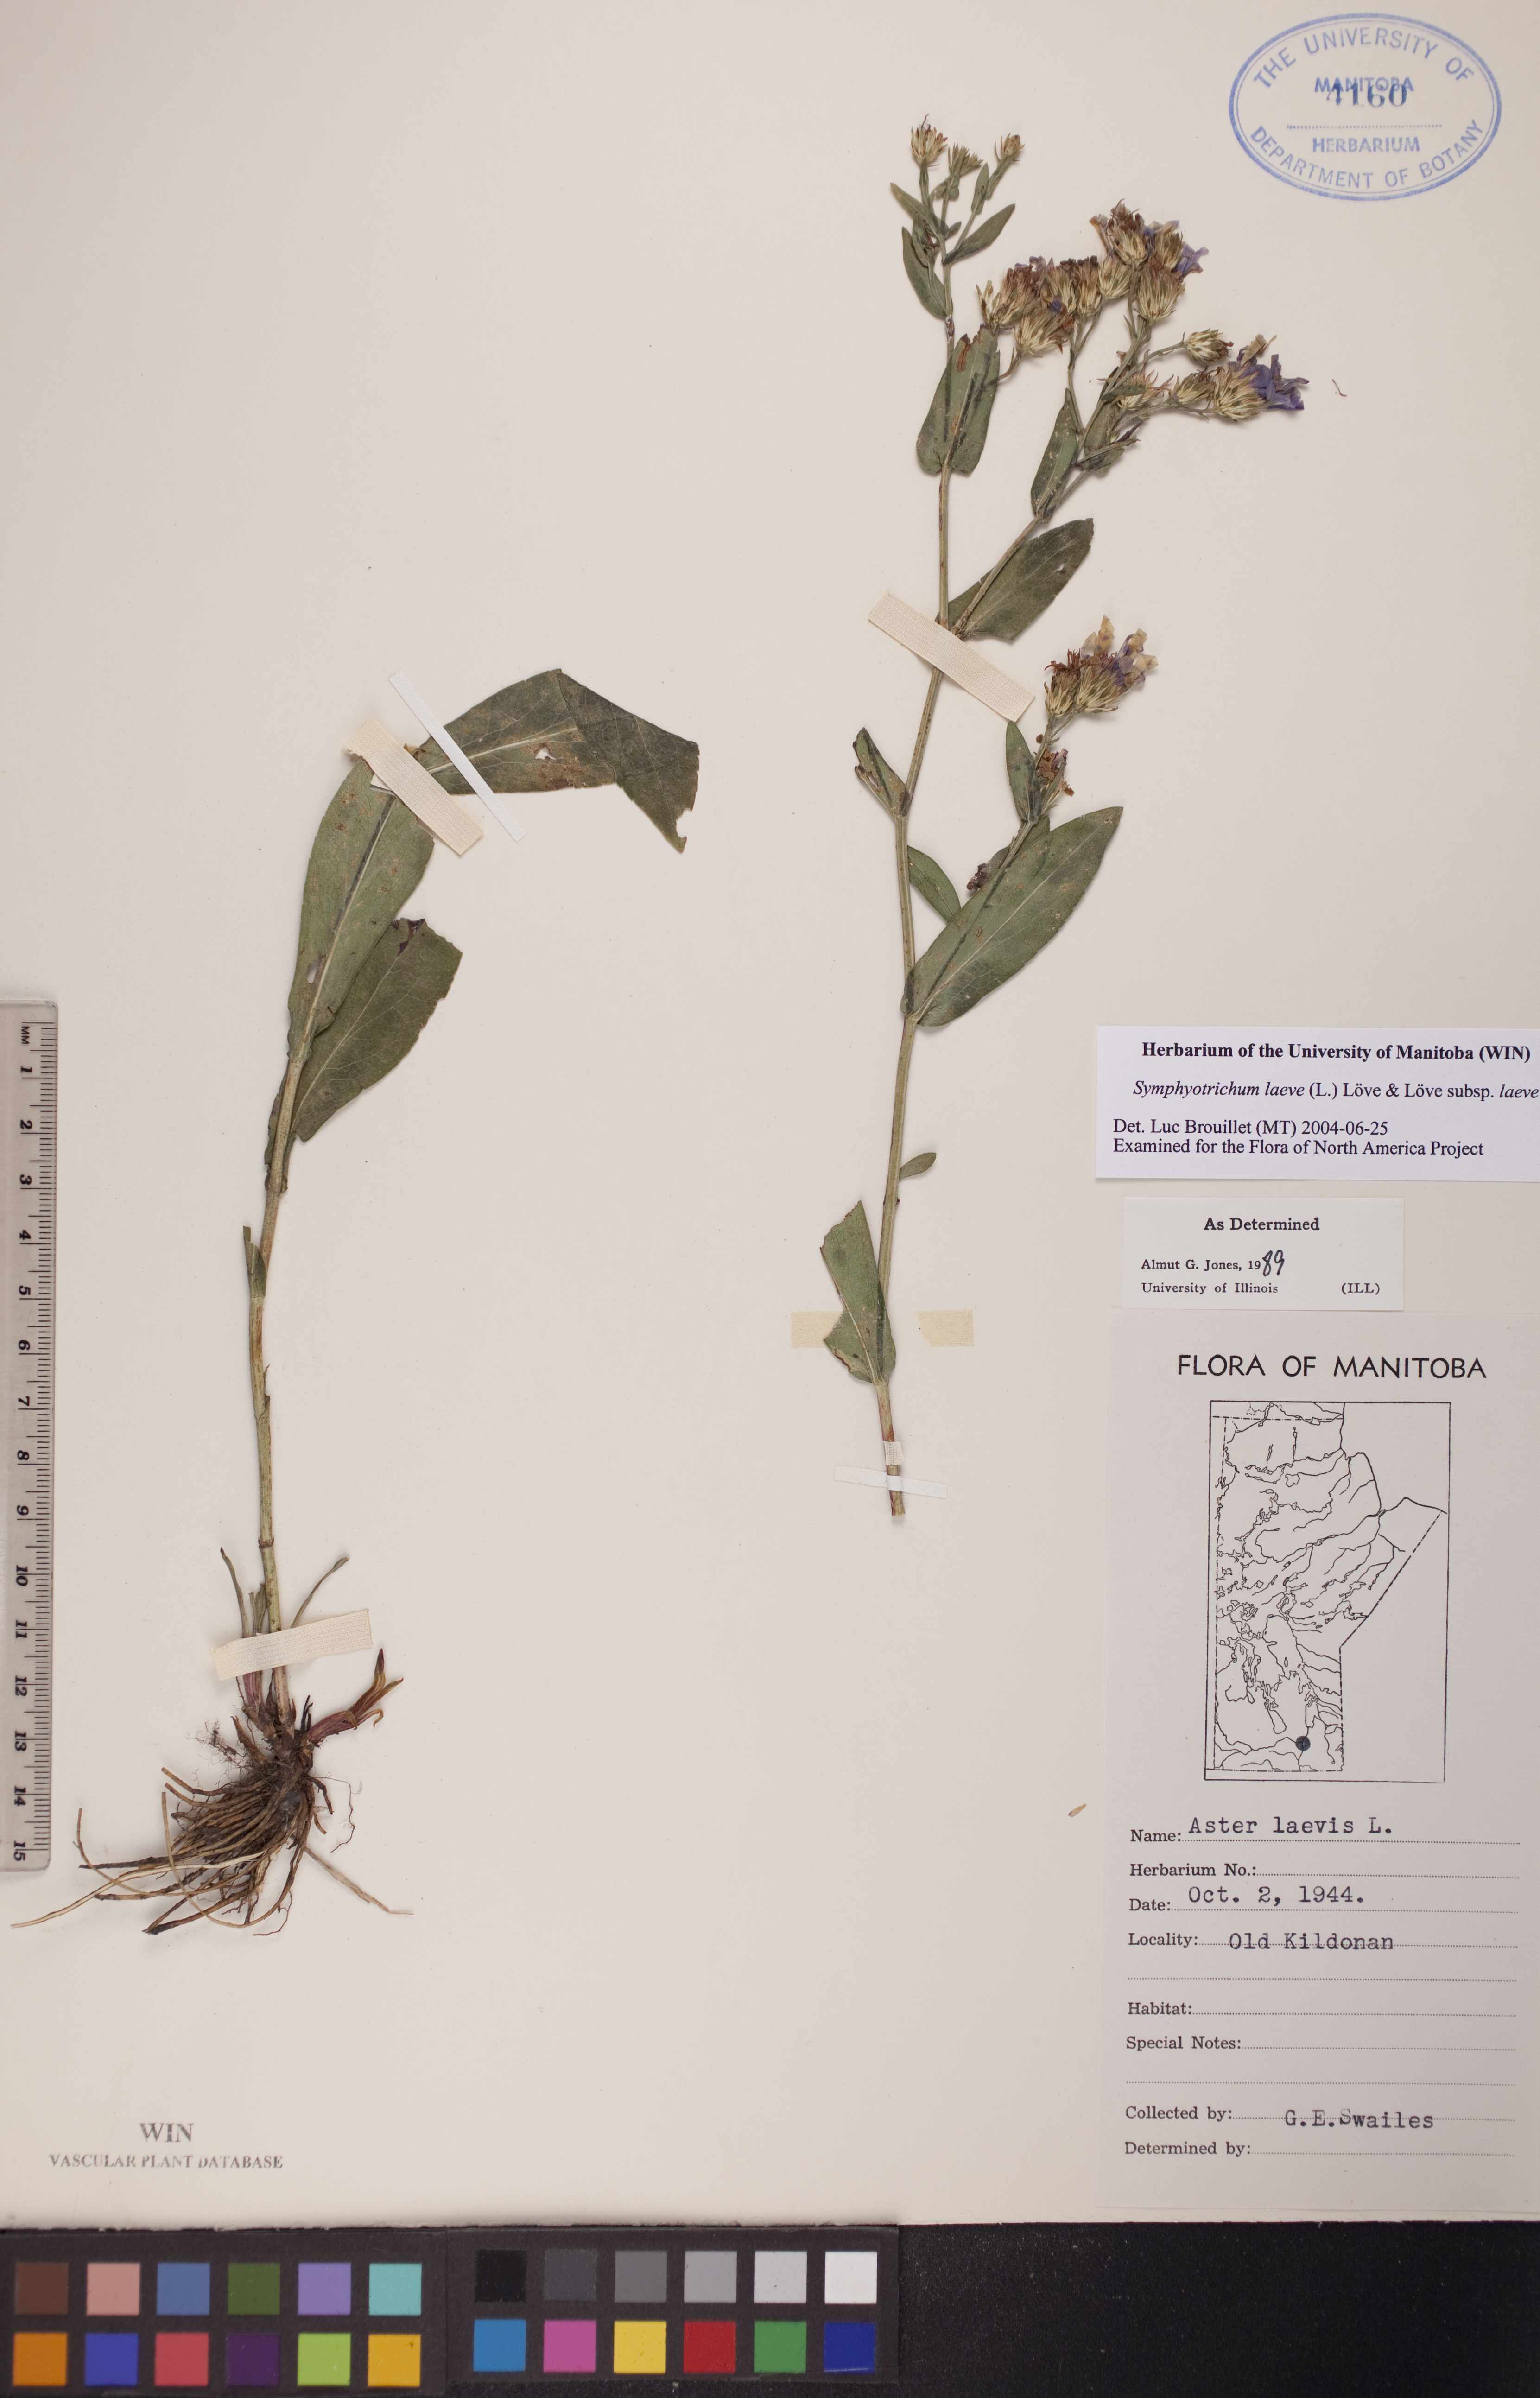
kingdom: Plantae
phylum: Tracheophyta
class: Magnoliopsida
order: Asterales
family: Asteraceae
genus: Symphyotrichum
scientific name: Symphyotrichum laeve
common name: Glaucous aster
